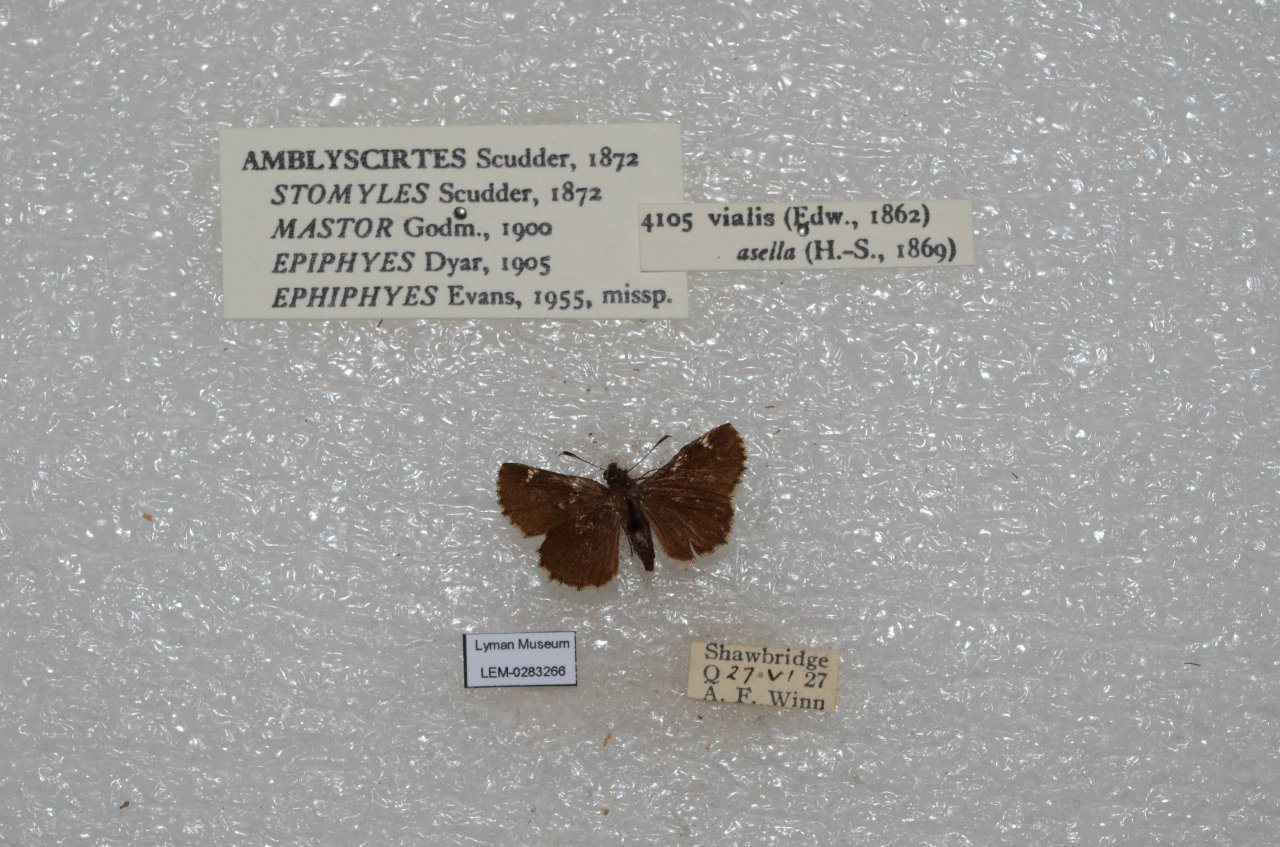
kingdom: Animalia
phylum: Arthropoda
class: Insecta
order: Lepidoptera
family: Hesperiidae
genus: Mastor
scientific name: Mastor vialis
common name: Common Roadside-Skipper
